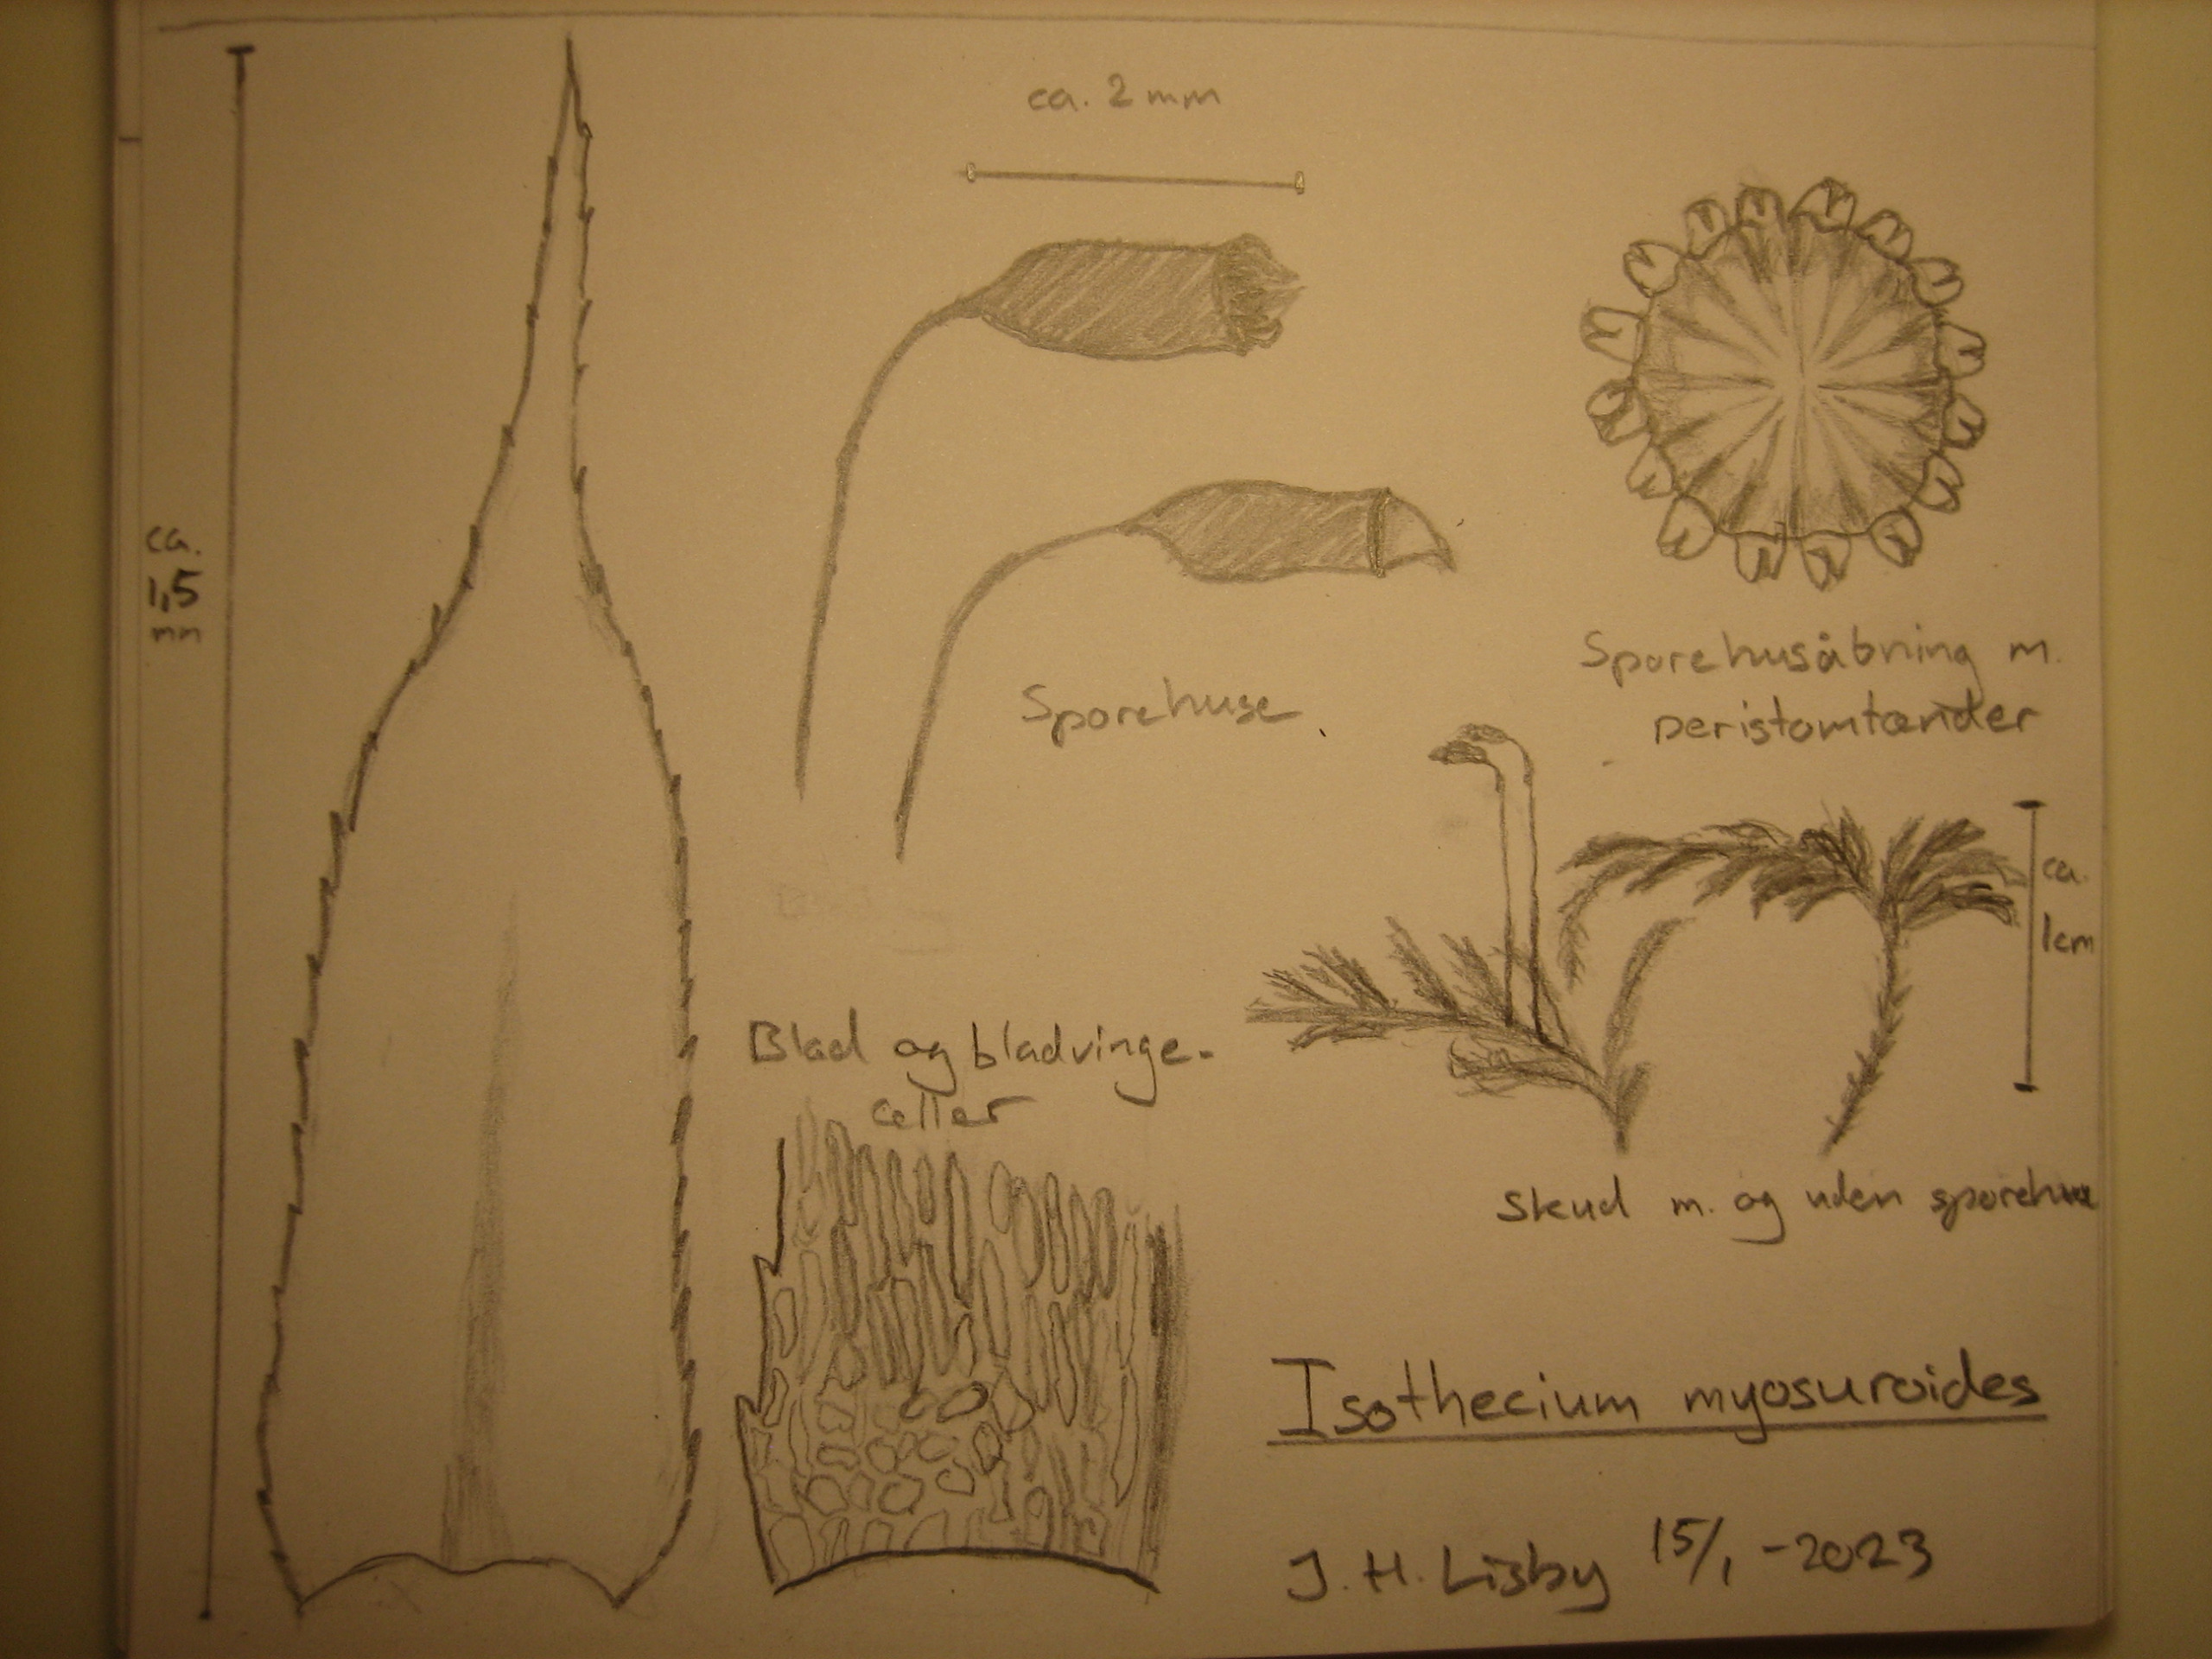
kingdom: Plantae
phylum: Bryophyta
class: Bryopsida
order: Hypnales
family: Lembophyllaceae
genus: Pseudisothecium
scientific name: Pseudisothecium myosuroides
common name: Slank stammemos
